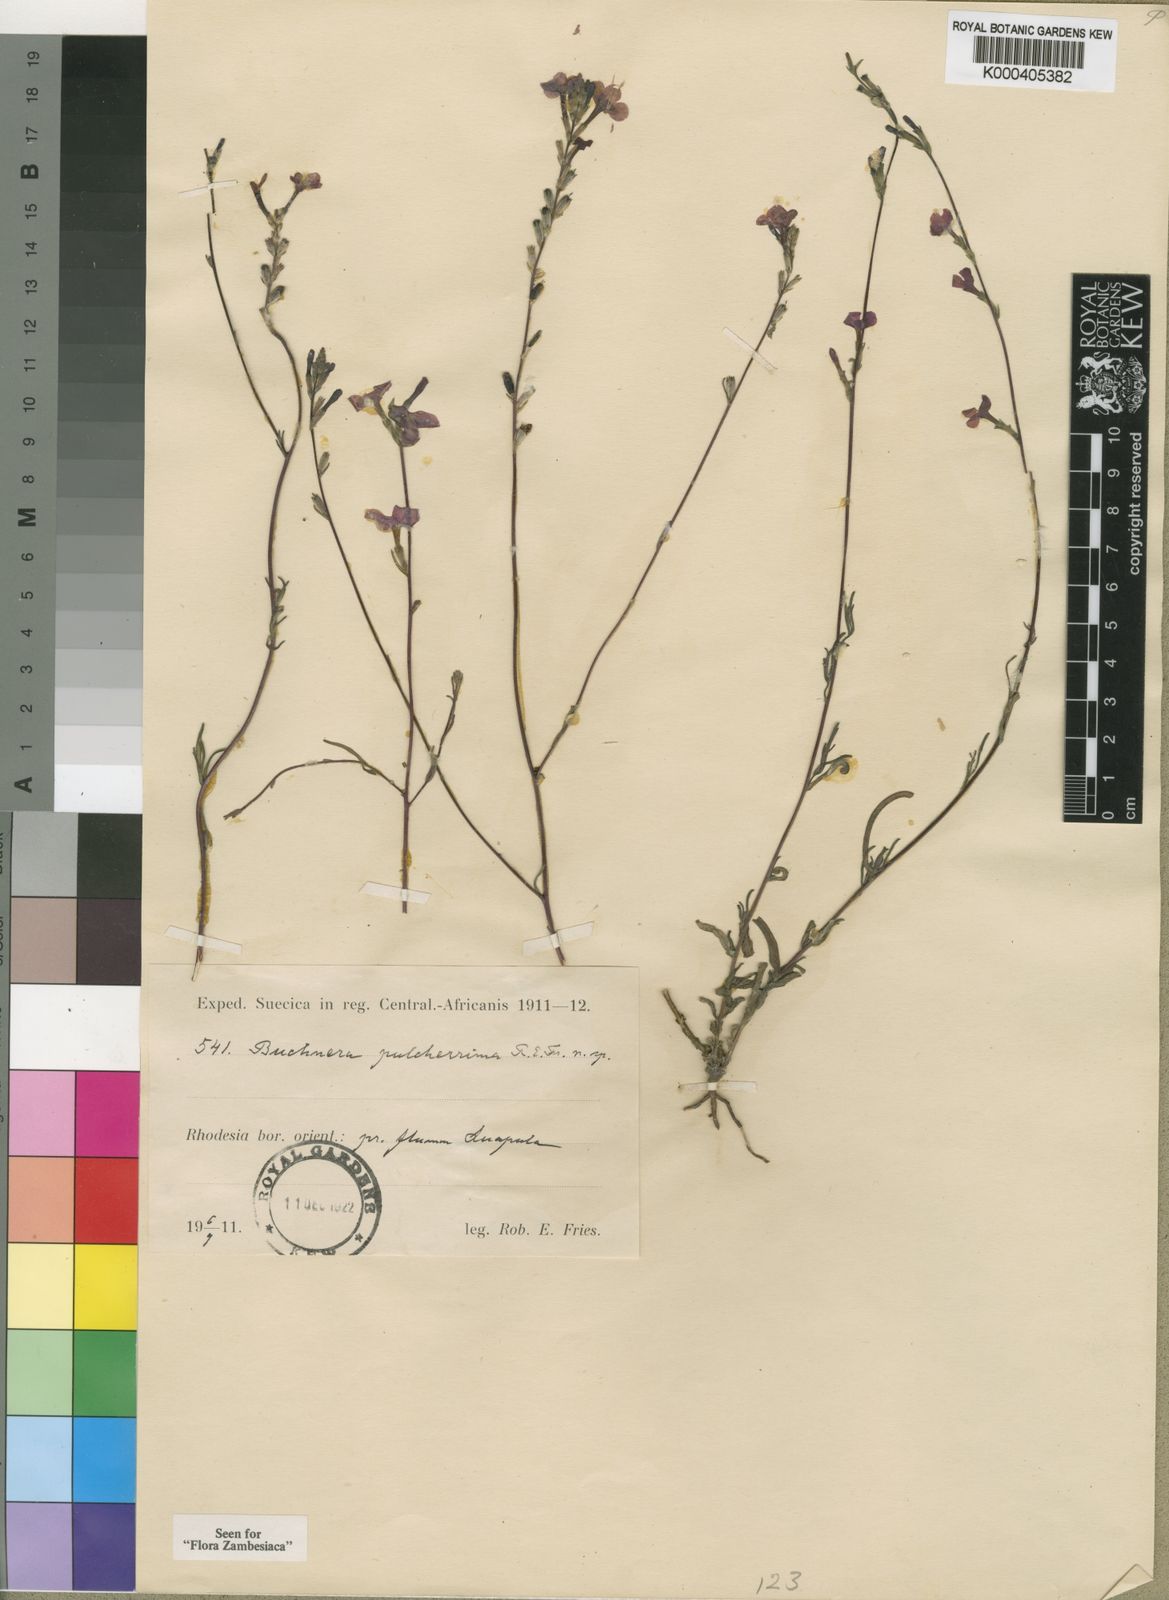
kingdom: Plantae
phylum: Tracheophyta
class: Magnoliopsida
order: Lamiales
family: Orobanchaceae
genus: Buchnera
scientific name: Buchnera pulcherrima
